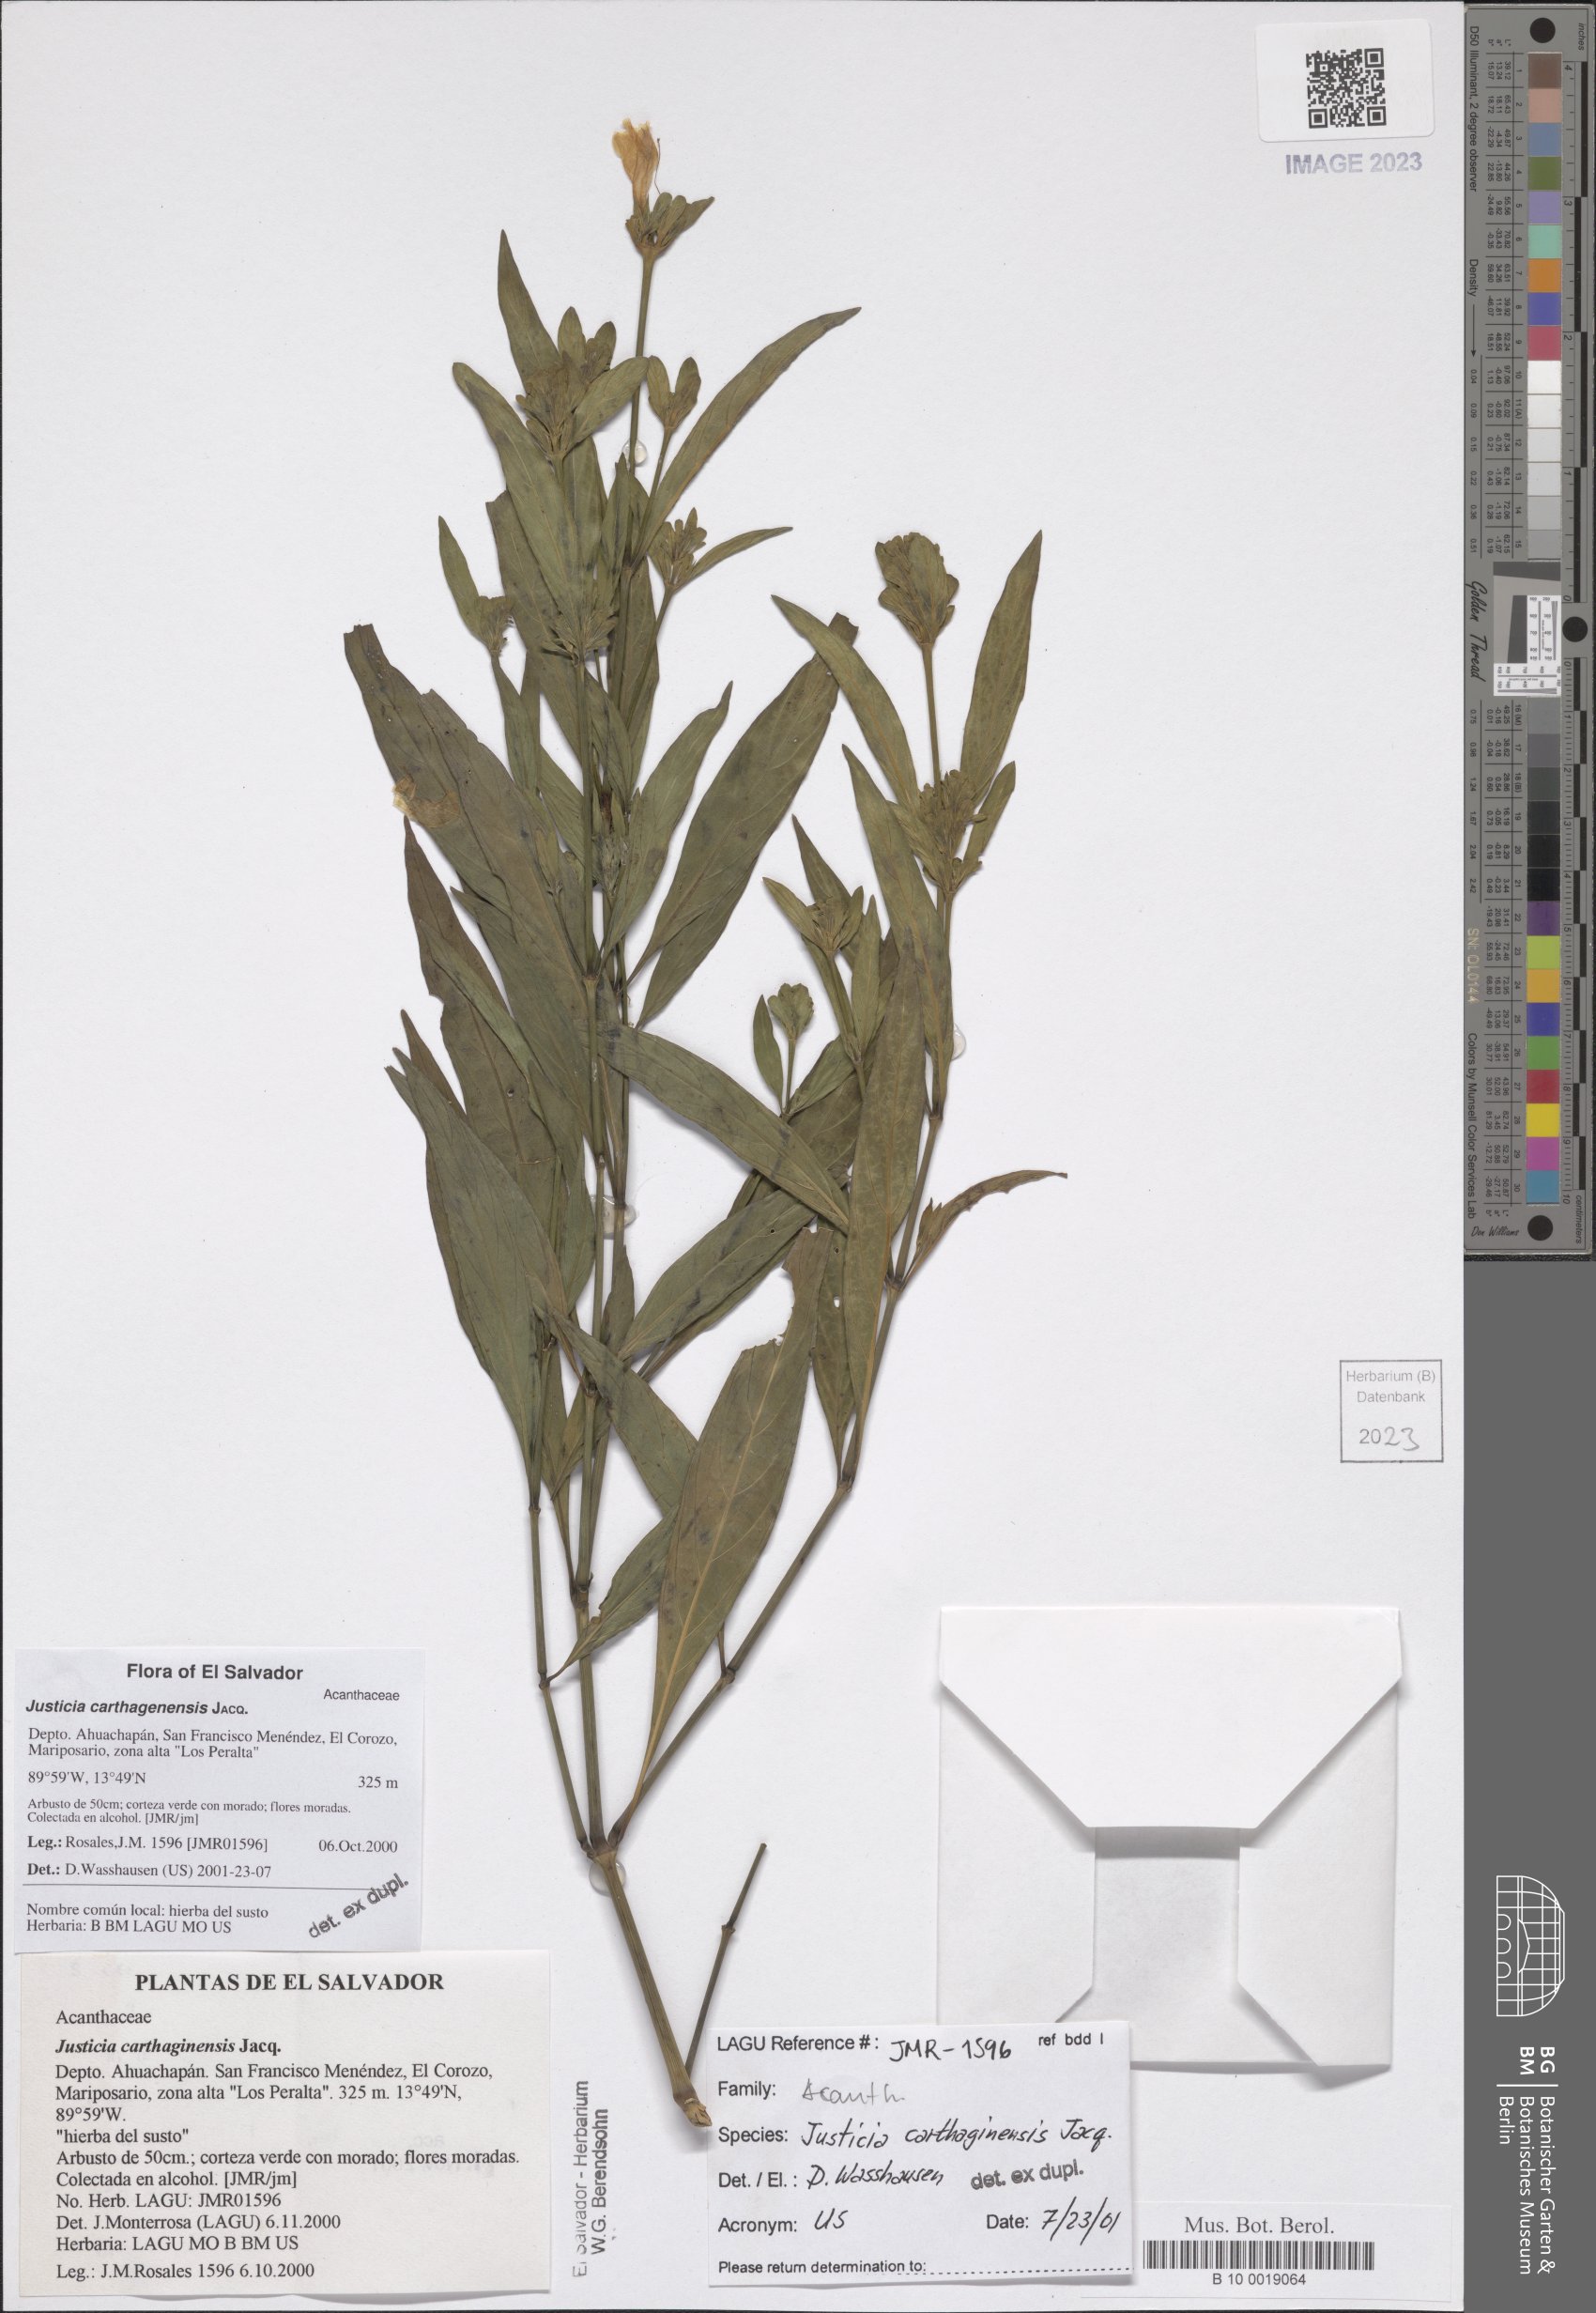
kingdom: Plantae
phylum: Tracheophyta
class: Magnoliopsida
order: Lamiales
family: Acanthaceae
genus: Justicia
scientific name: Justicia carthagenensis
